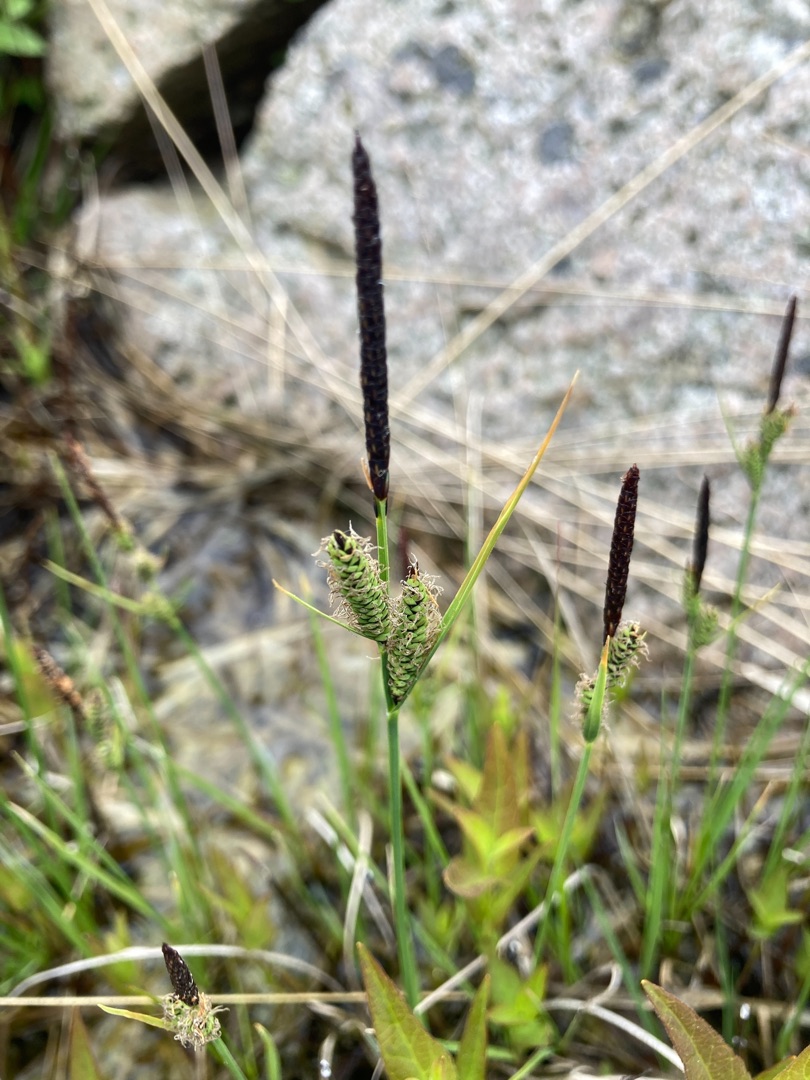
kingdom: Plantae
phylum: Tracheophyta
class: Liliopsida
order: Poales
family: Cyperaceae
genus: Carex
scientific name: Carex nigra
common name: Almindelig star
